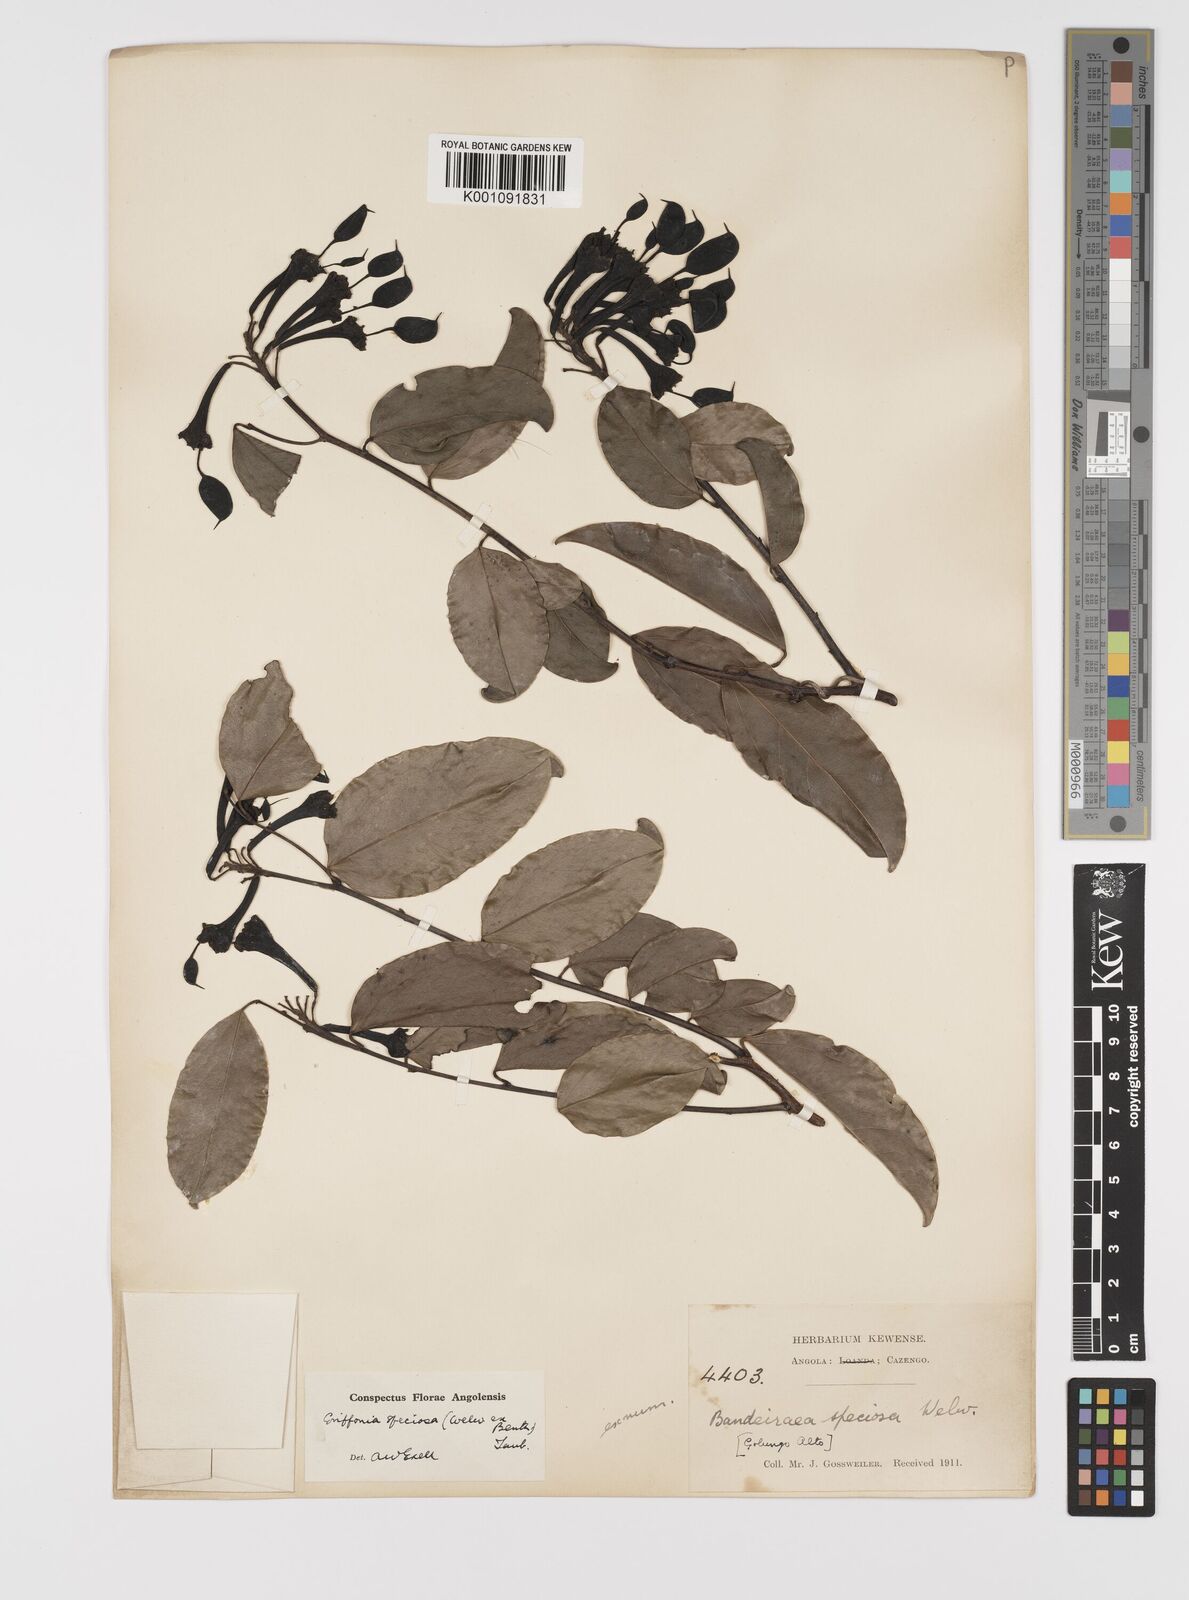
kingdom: Plantae
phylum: Tracheophyta
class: Magnoliopsida
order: Fabales
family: Fabaceae
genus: Griffonia
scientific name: Griffonia speciosa
